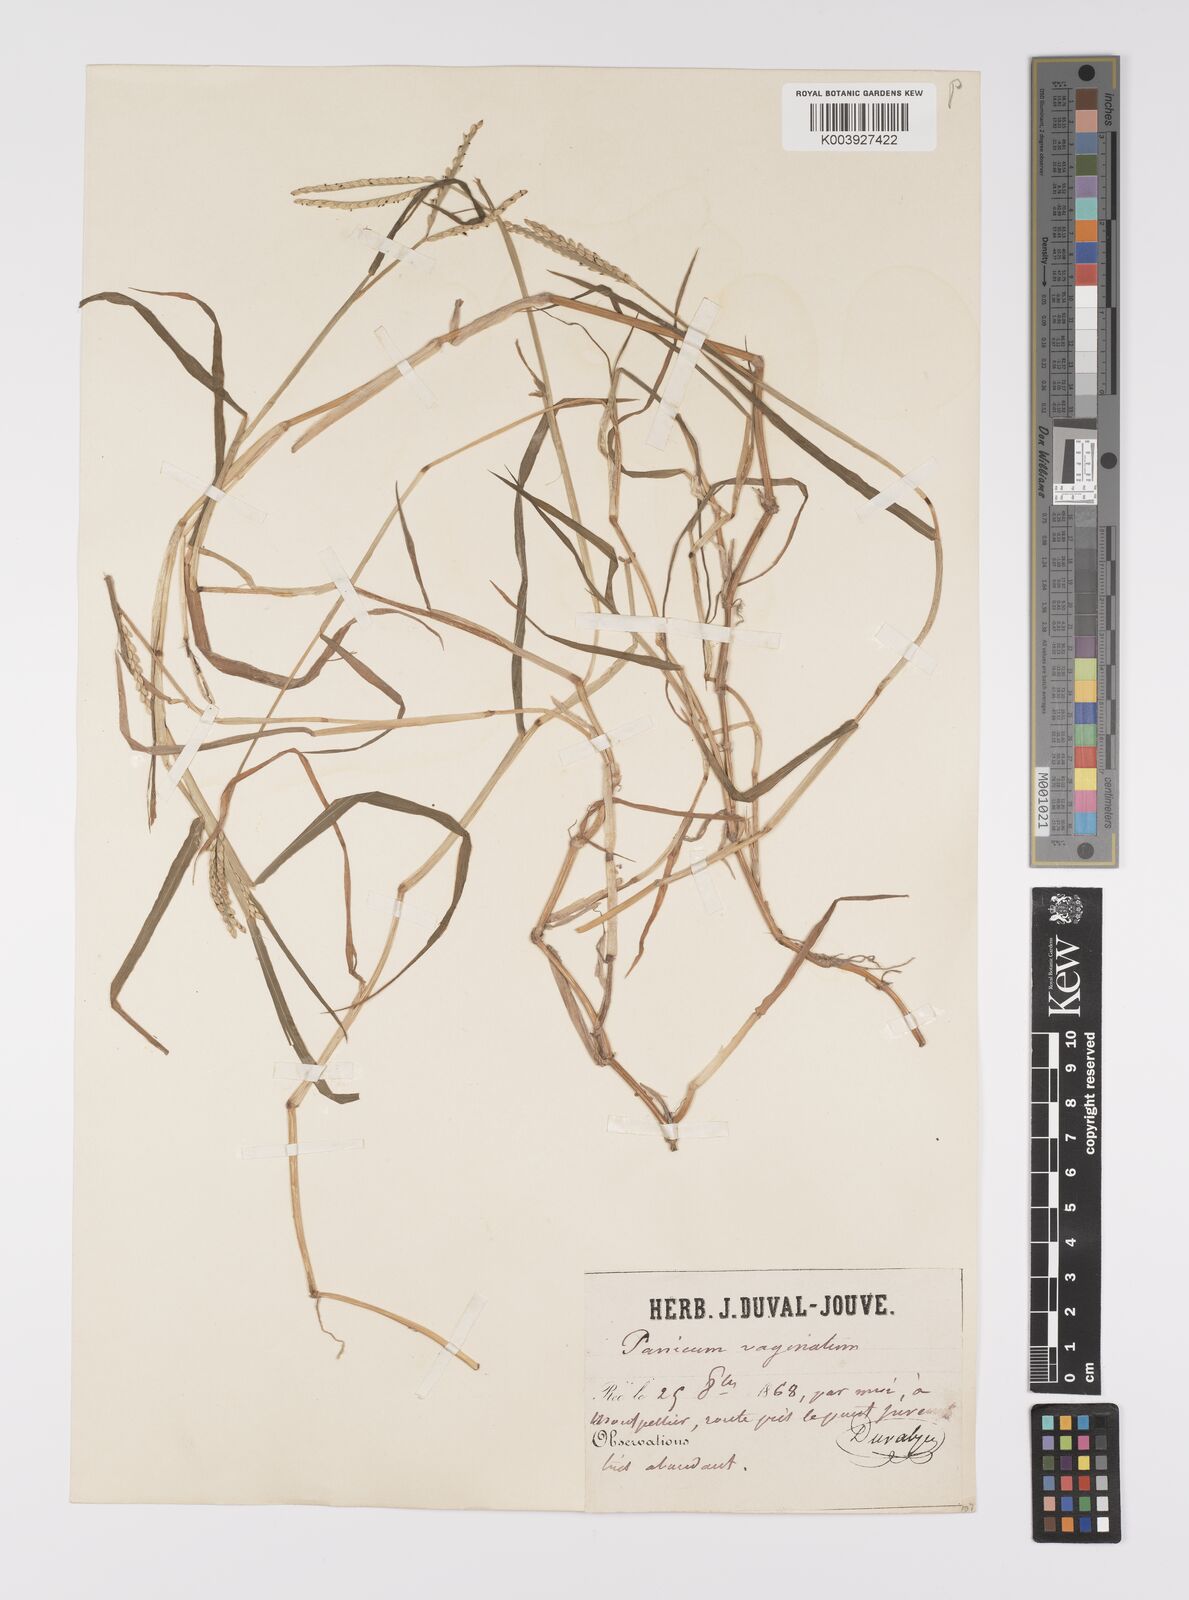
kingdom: Plantae
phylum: Tracheophyta
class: Liliopsida
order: Poales
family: Poaceae
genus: Paspalum
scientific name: Paspalum distichum
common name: Knotgrass
